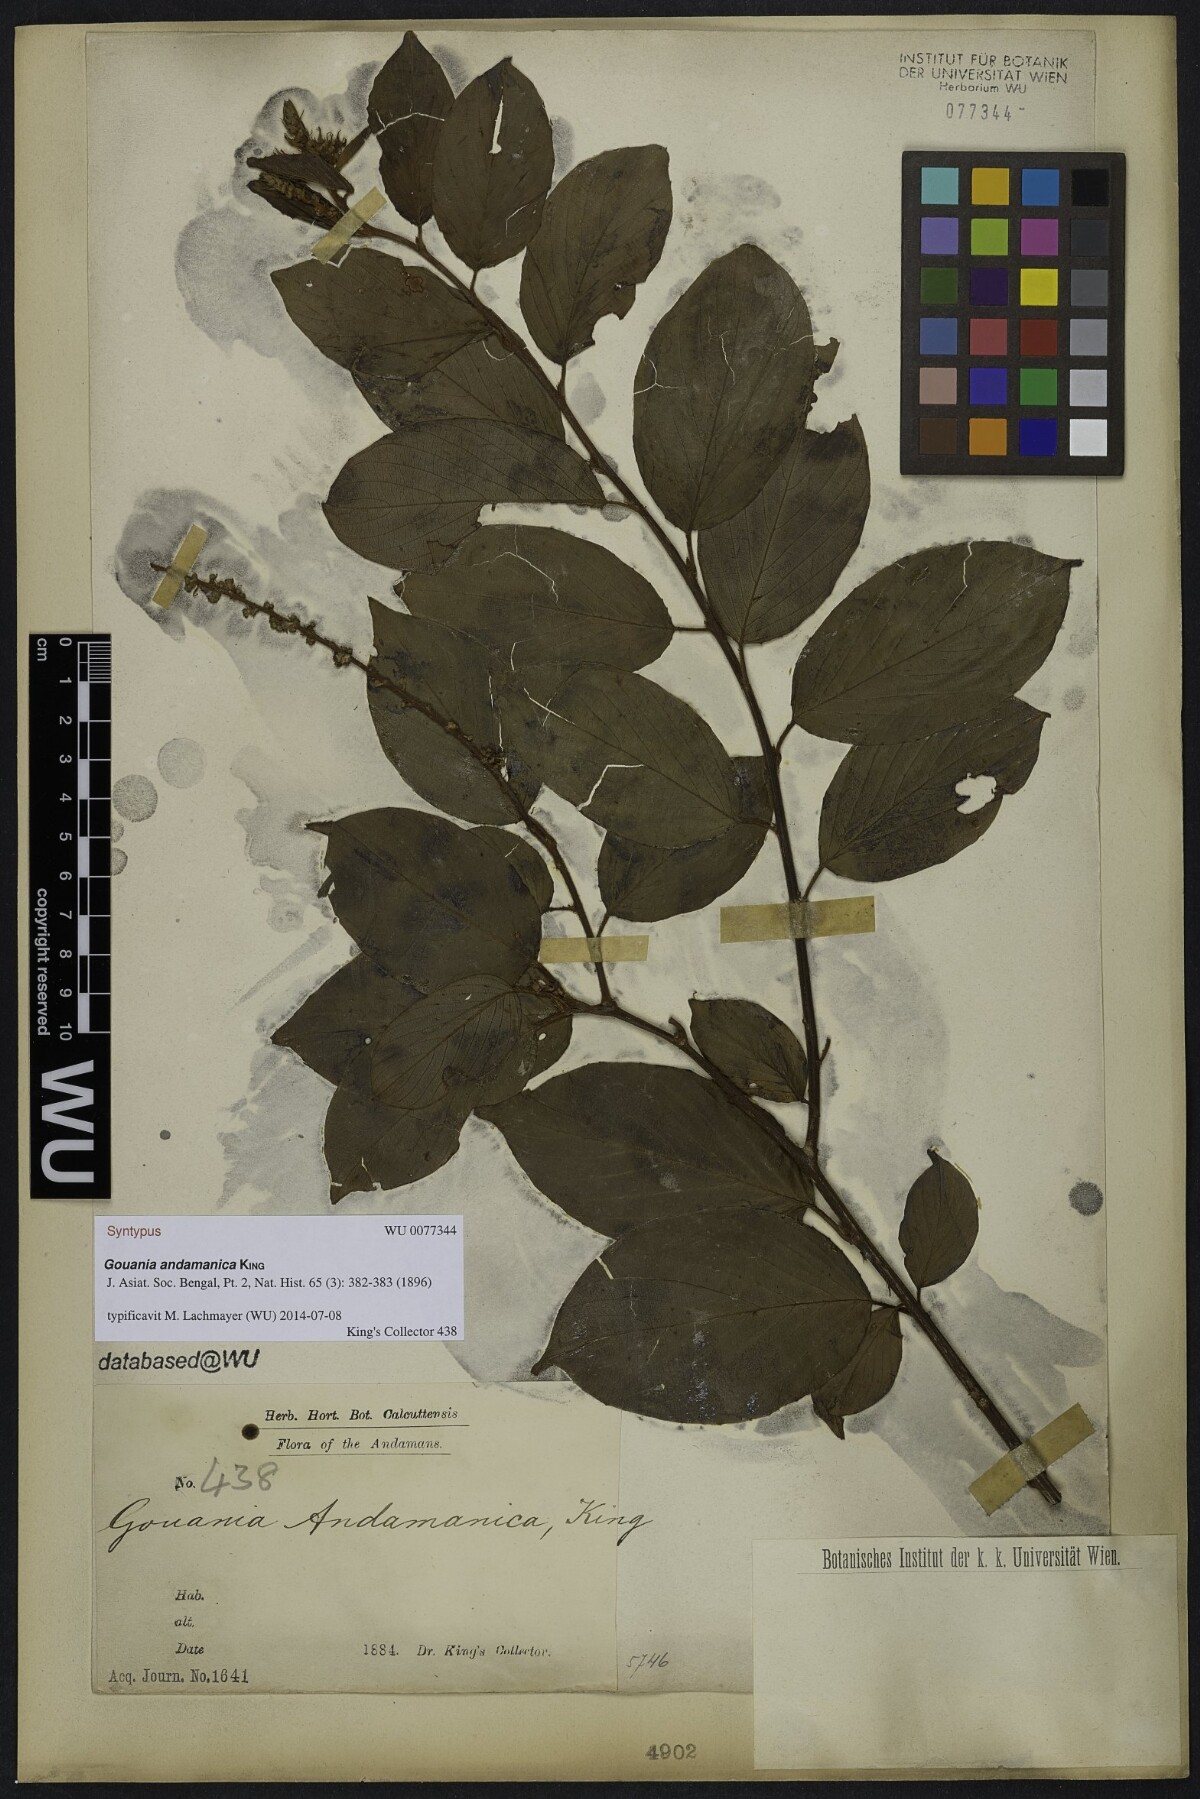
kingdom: Plantae
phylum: Tracheophyta
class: Magnoliopsida
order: Rosales
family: Rhamnaceae
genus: Gouania
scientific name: Gouania andamanica
